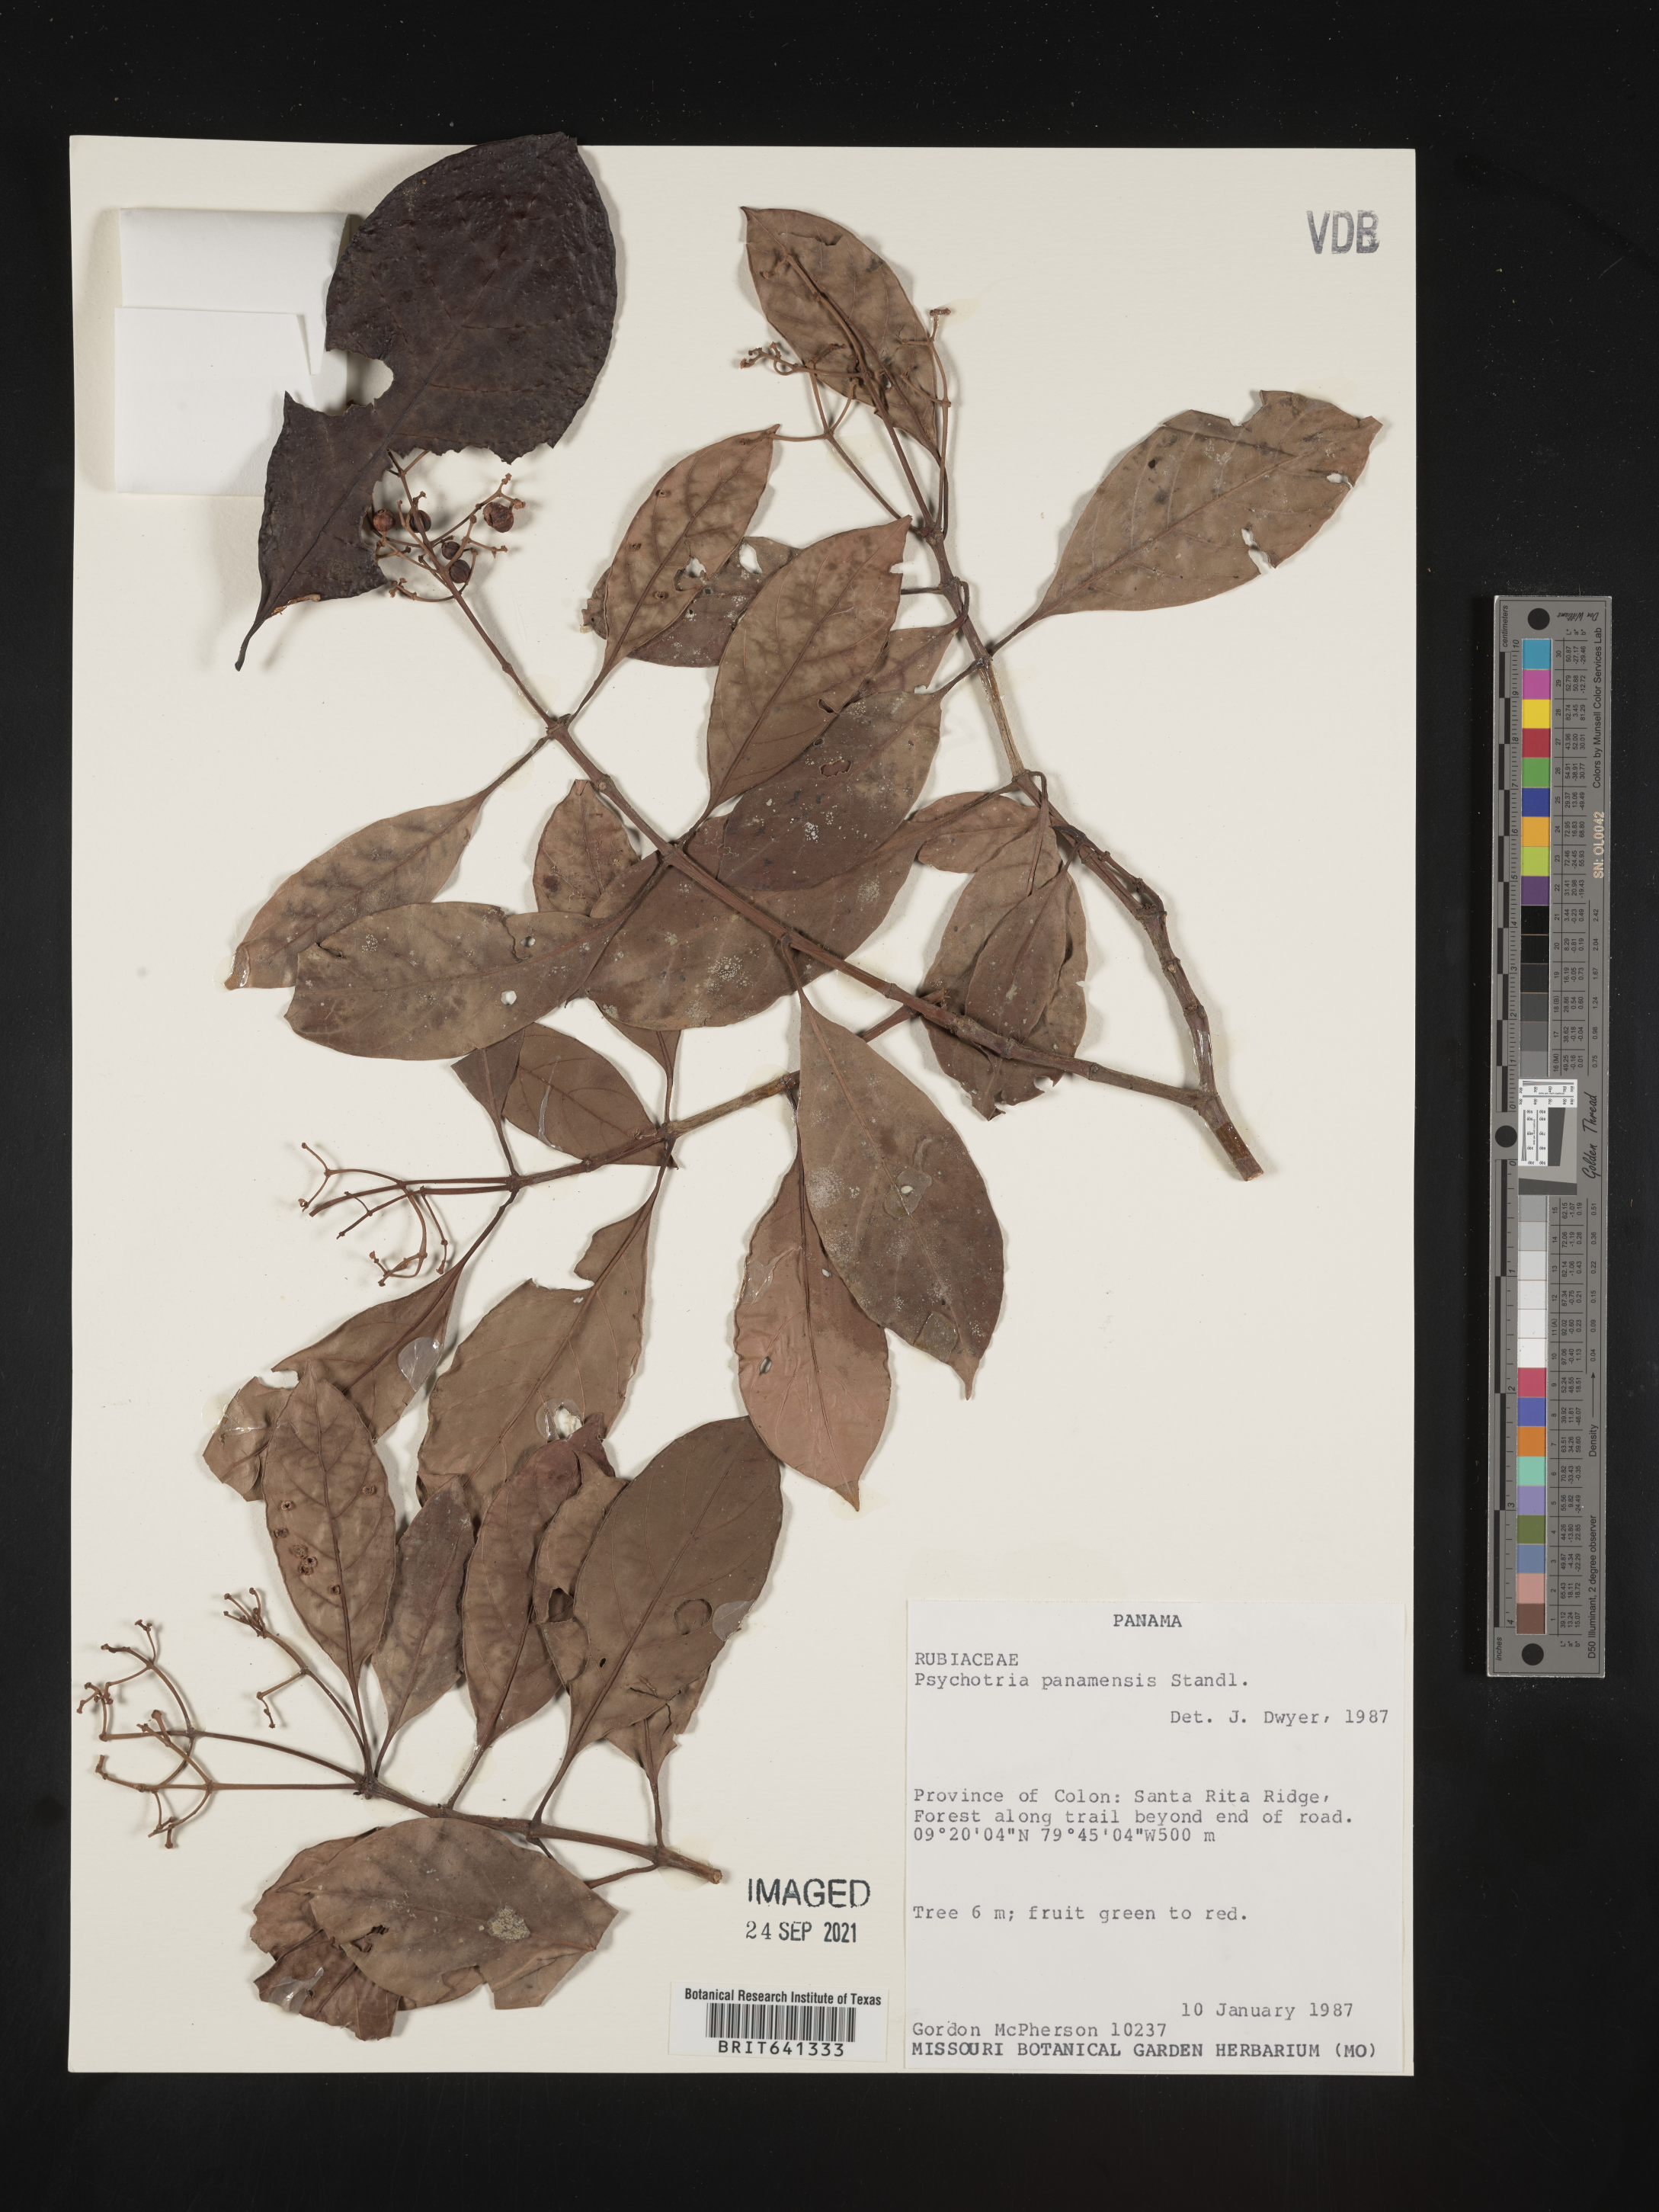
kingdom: Plantae
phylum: Tracheophyta
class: Magnoliopsida
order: Gentianales
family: Rubiaceae
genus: Psychotria
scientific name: Psychotria
